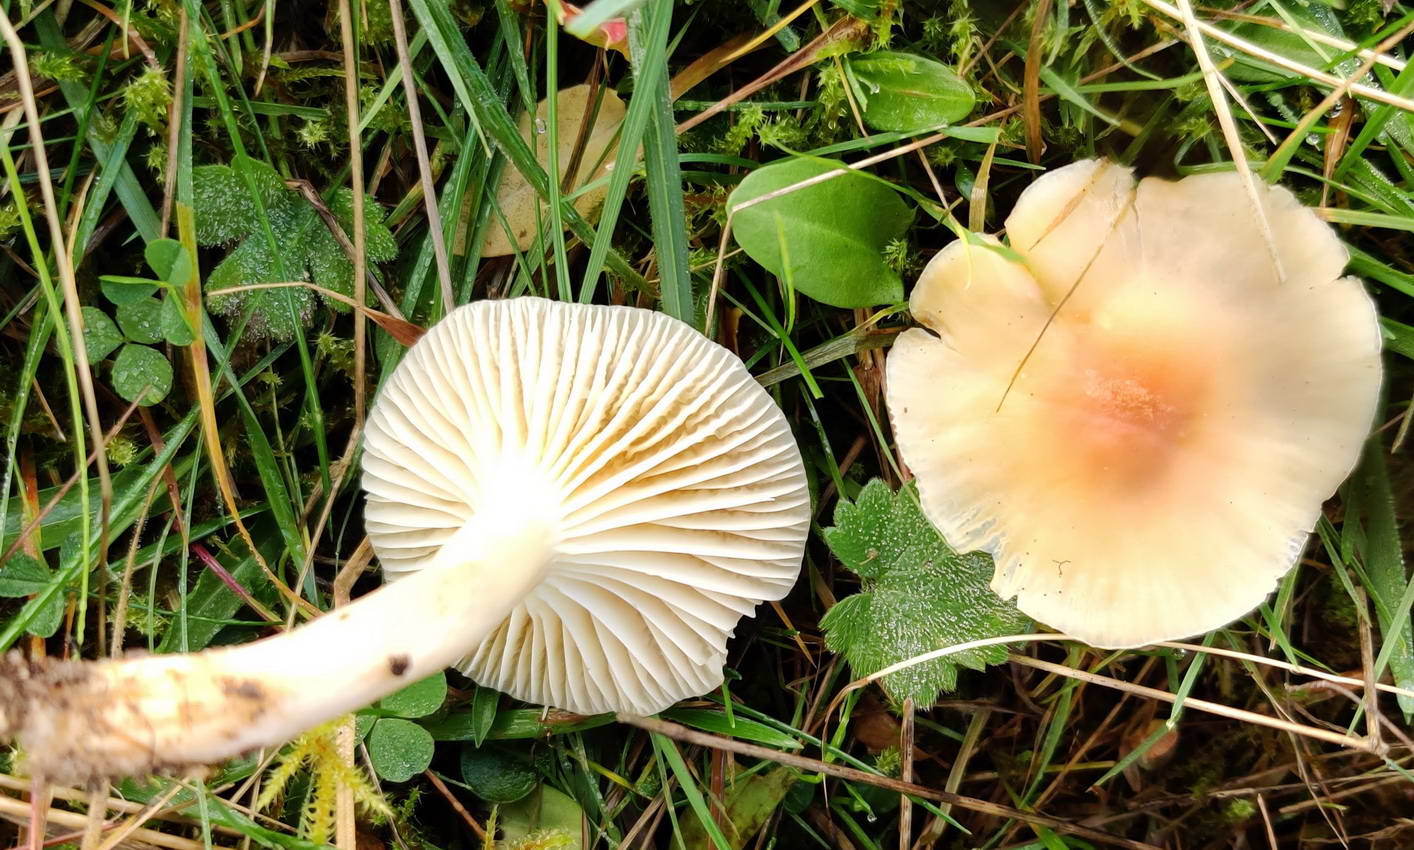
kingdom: Fungi
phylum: Basidiomycota
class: Agaricomycetes
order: Agaricales
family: Hygrophoraceae
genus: Cuphophyllus
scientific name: Cuphophyllus pratensis
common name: eng-vokshat
